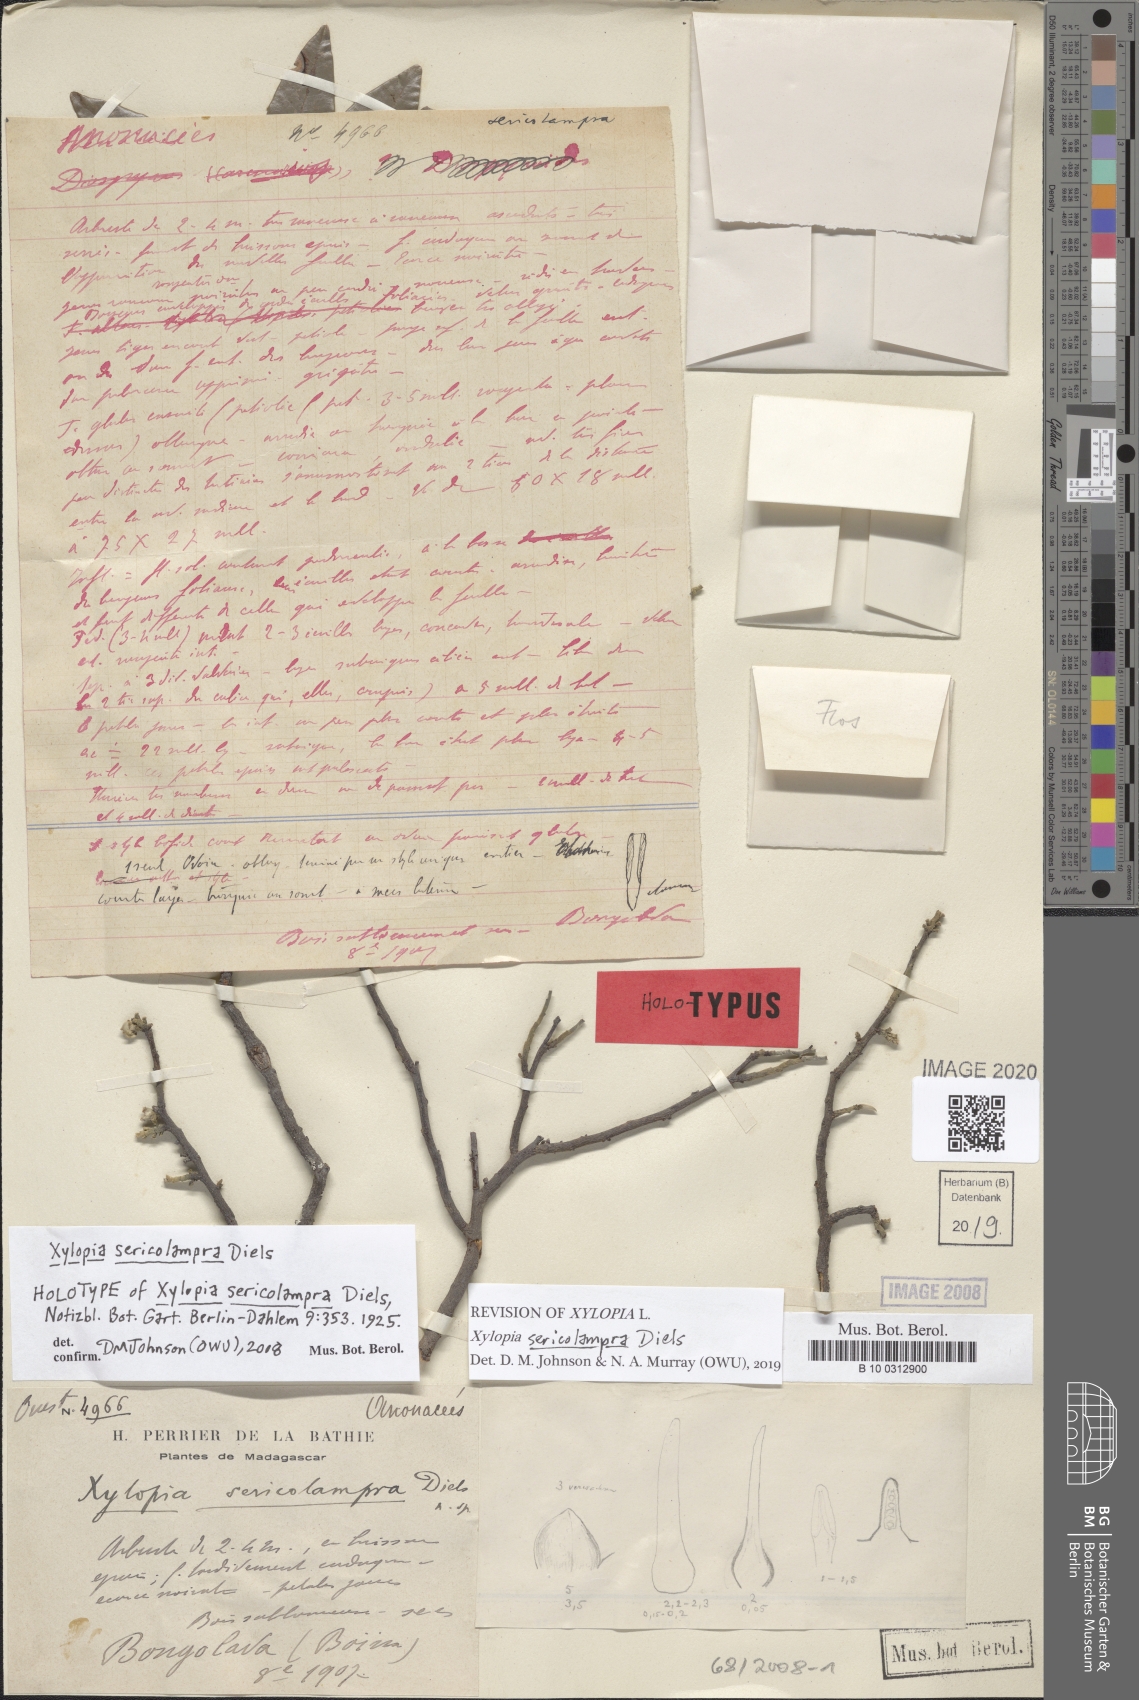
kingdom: Plantae
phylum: Tracheophyta
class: Magnoliopsida
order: Magnoliales
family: Annonaceae
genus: Xylopia
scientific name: Xylopia sericolampra
